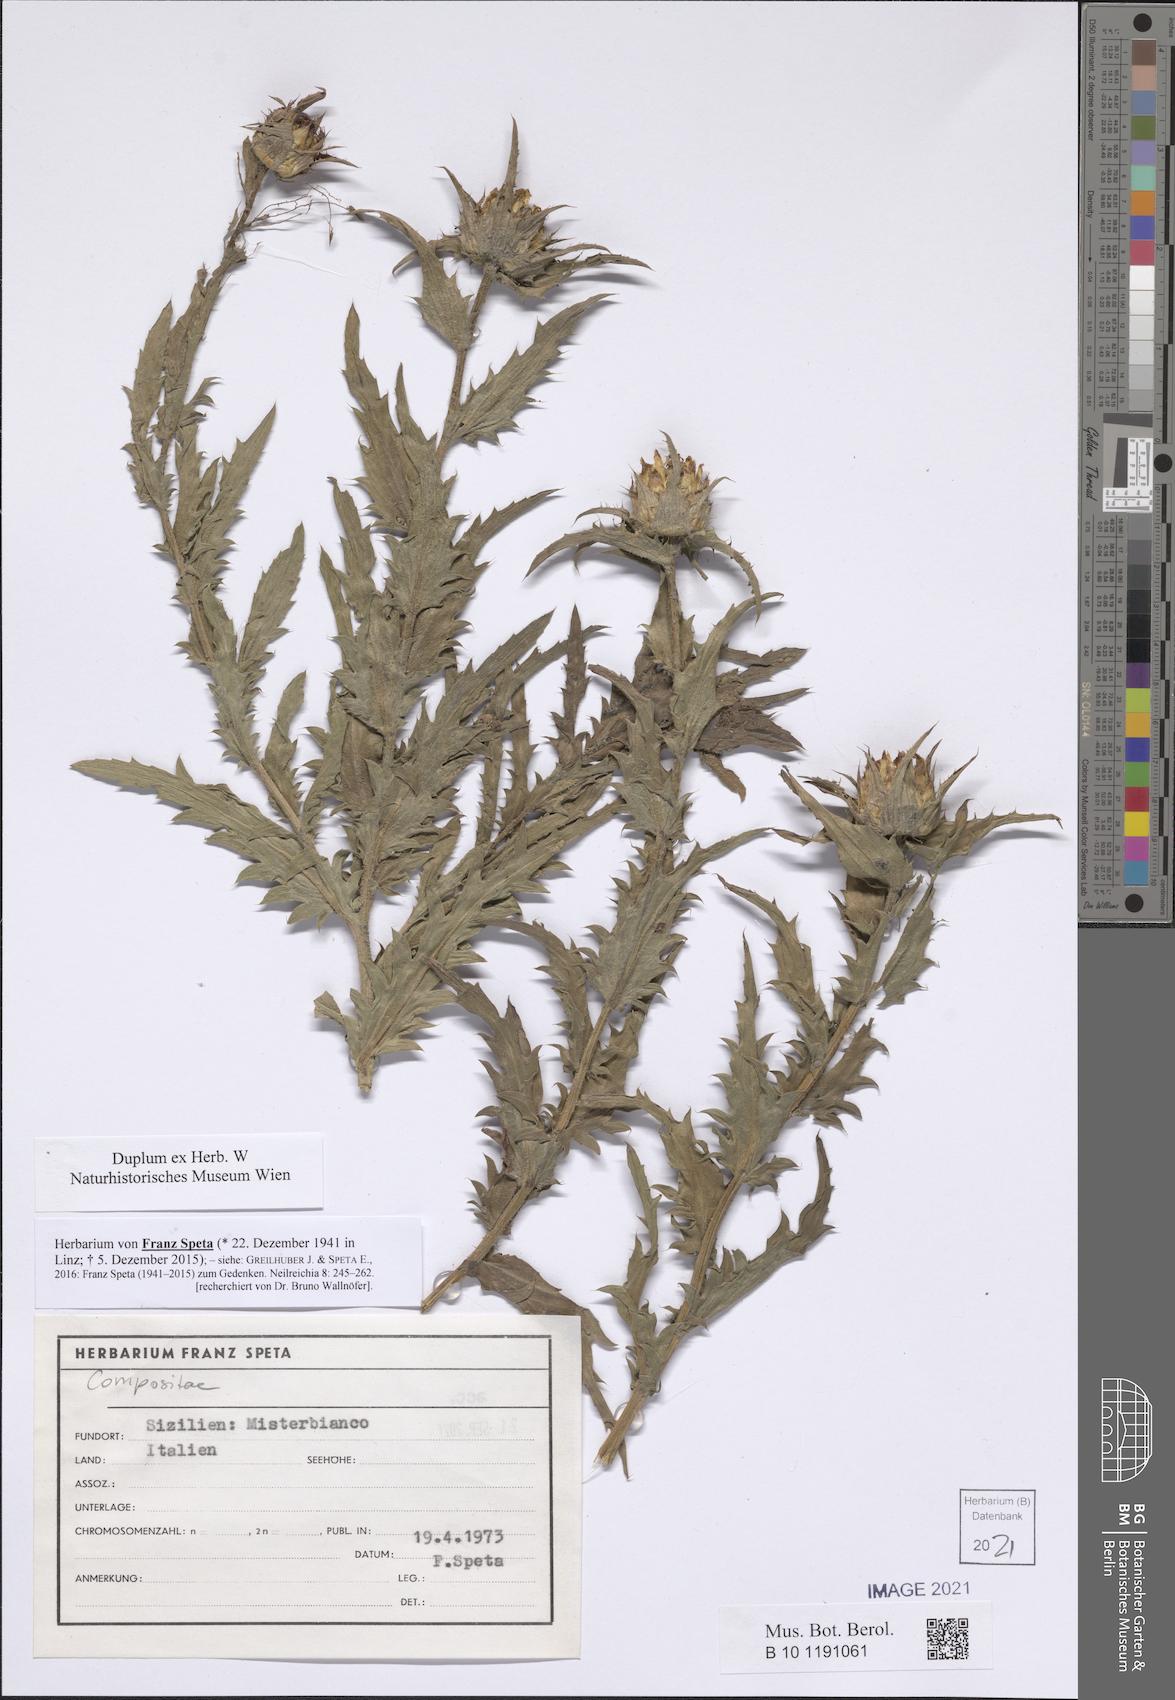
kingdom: Plantae
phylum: Tracheophyta
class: Magnoliopsida
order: Asterales
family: Asteraceae
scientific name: Asteraceae
